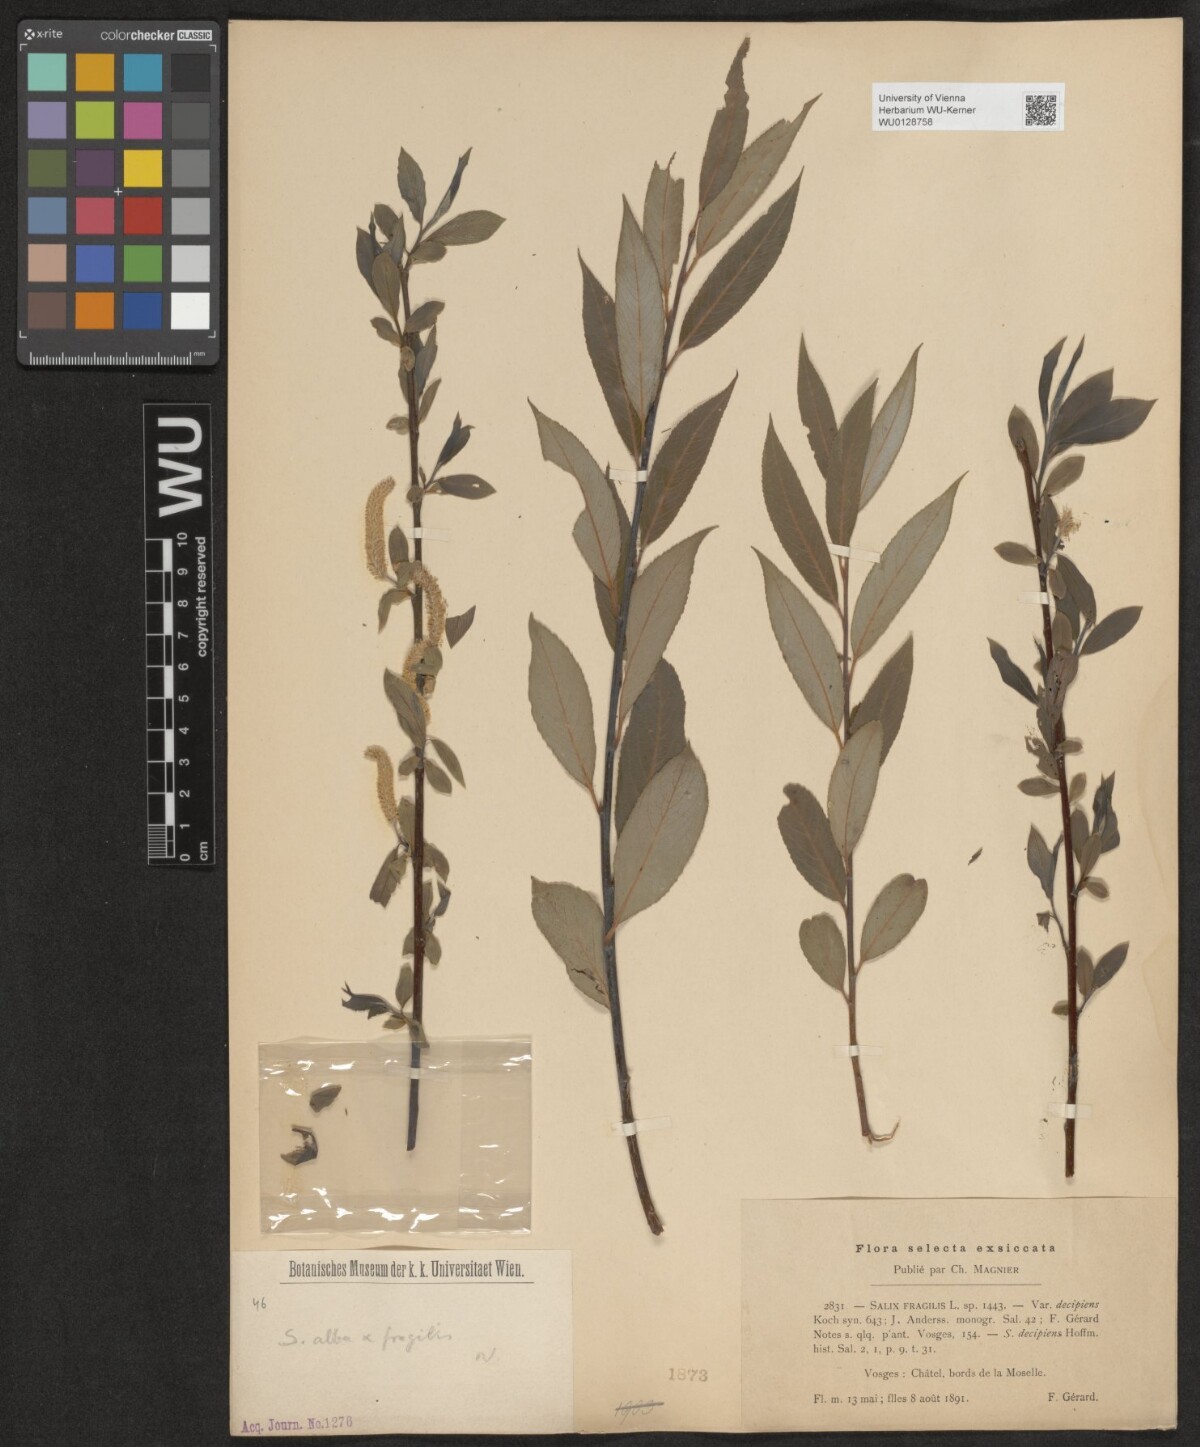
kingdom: Plantae
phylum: Tracheophyta
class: Magnoliopsida
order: Malpighiales
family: Salicaceae
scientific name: Salicaceae
